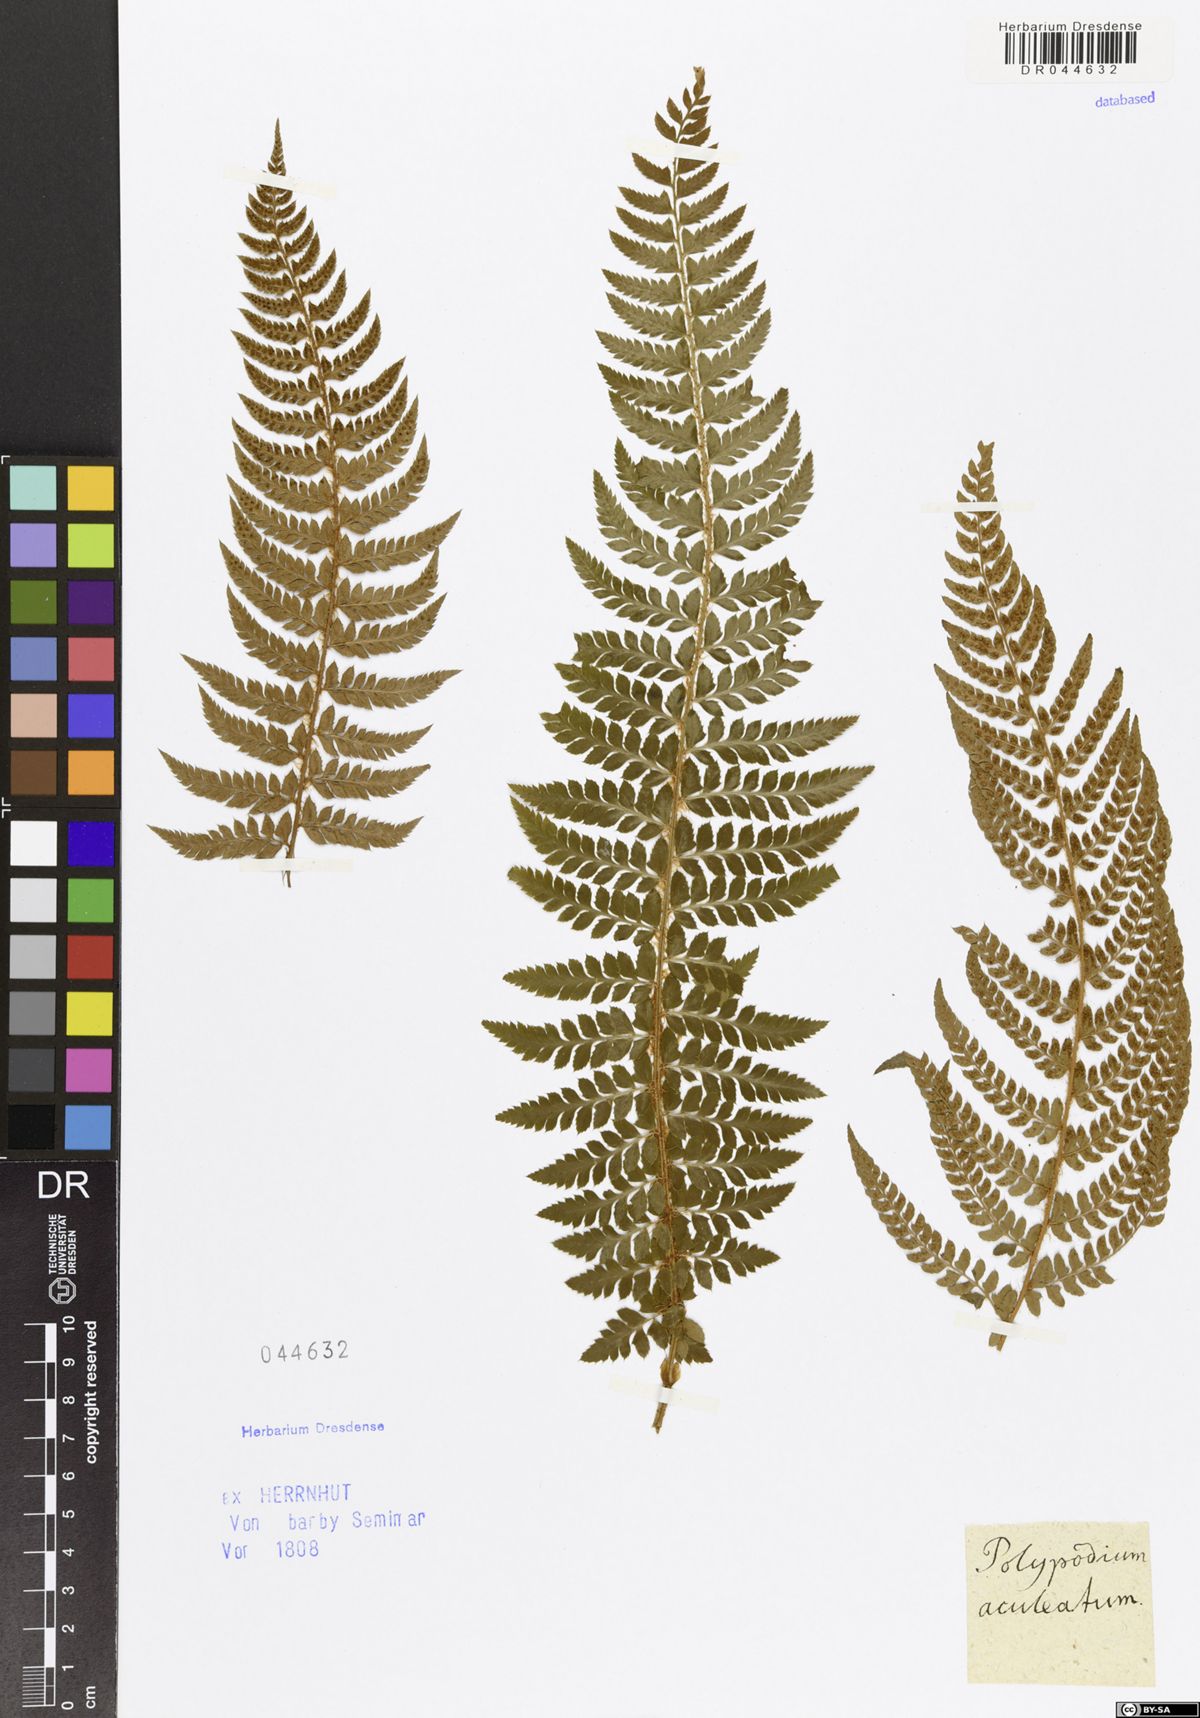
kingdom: Plantae
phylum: Tracheophyta
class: Polypodiopsida
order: Polypodiales
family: Dryopteridaceae
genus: Polystichum
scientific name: Polystichum aculeatum
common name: Hard shield-fern
